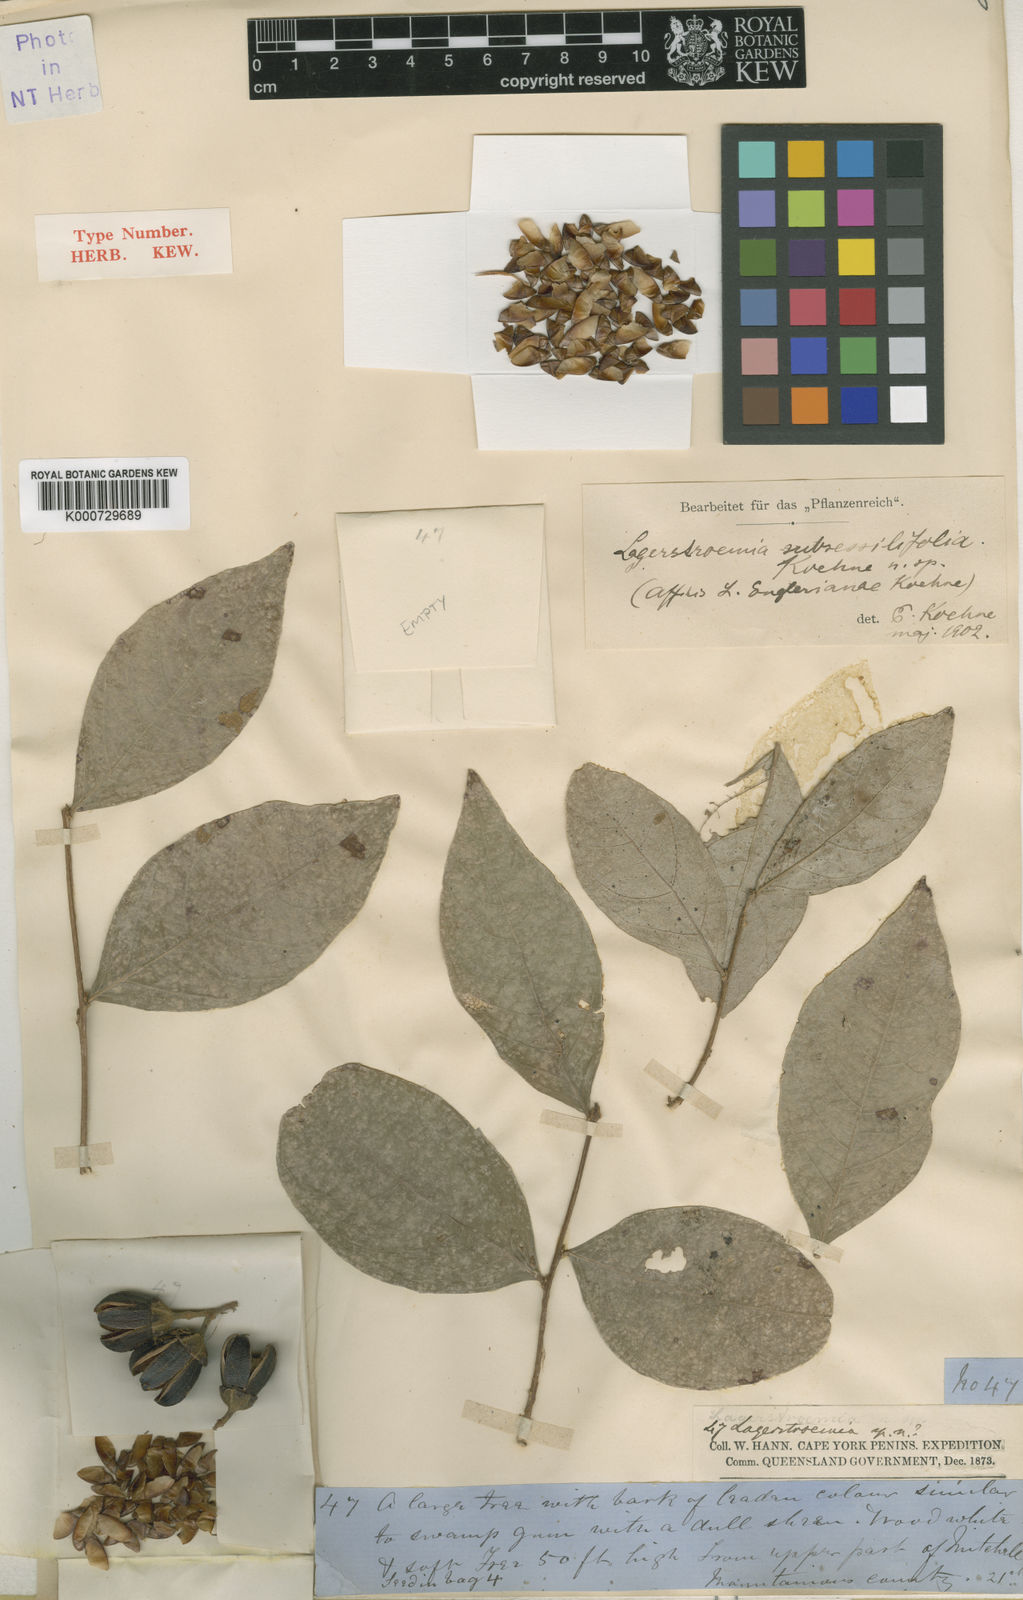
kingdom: Plantae
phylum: Tracheophyta
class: Magnoliopsida
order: Myrtales
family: Lythraceae
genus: Lagerstroemia
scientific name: Lagerstroemia engleriana
